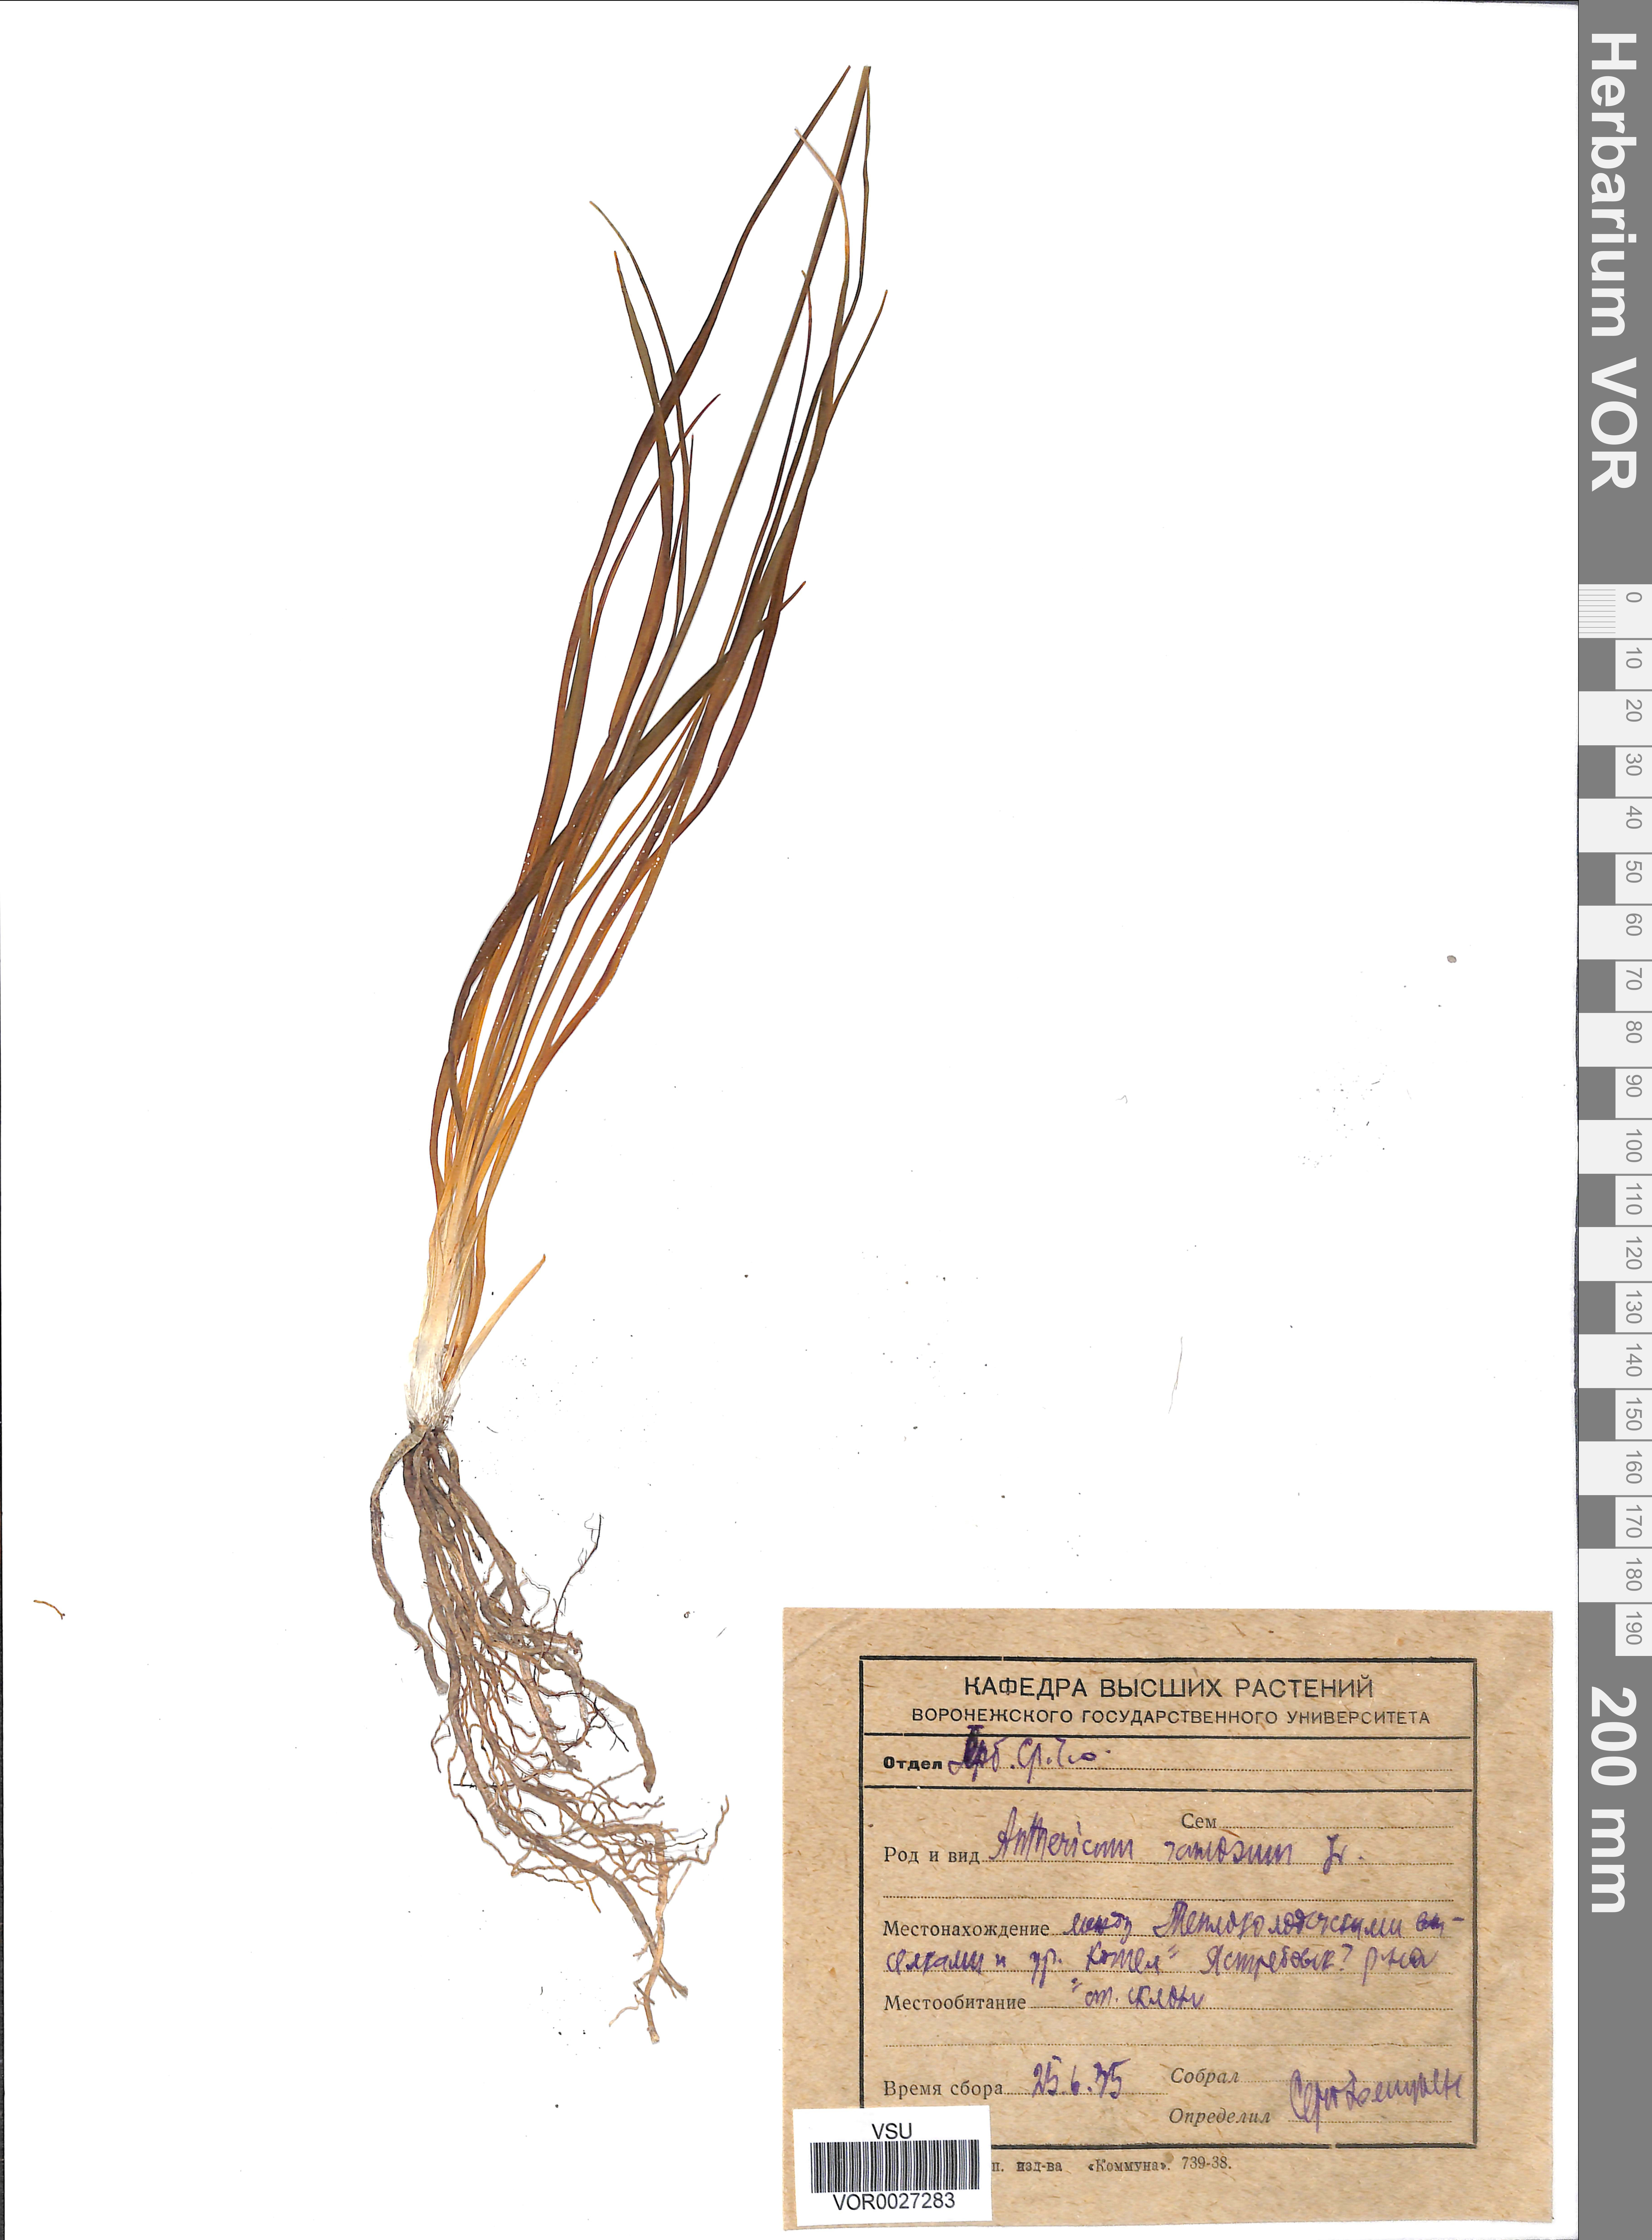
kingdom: Plantae
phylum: Tracheophyta
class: Liliopsida
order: Asparagales
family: Asparagaceae
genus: Anthericum
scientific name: Anthericum ramosum
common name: Branched st. bernard's-lily
